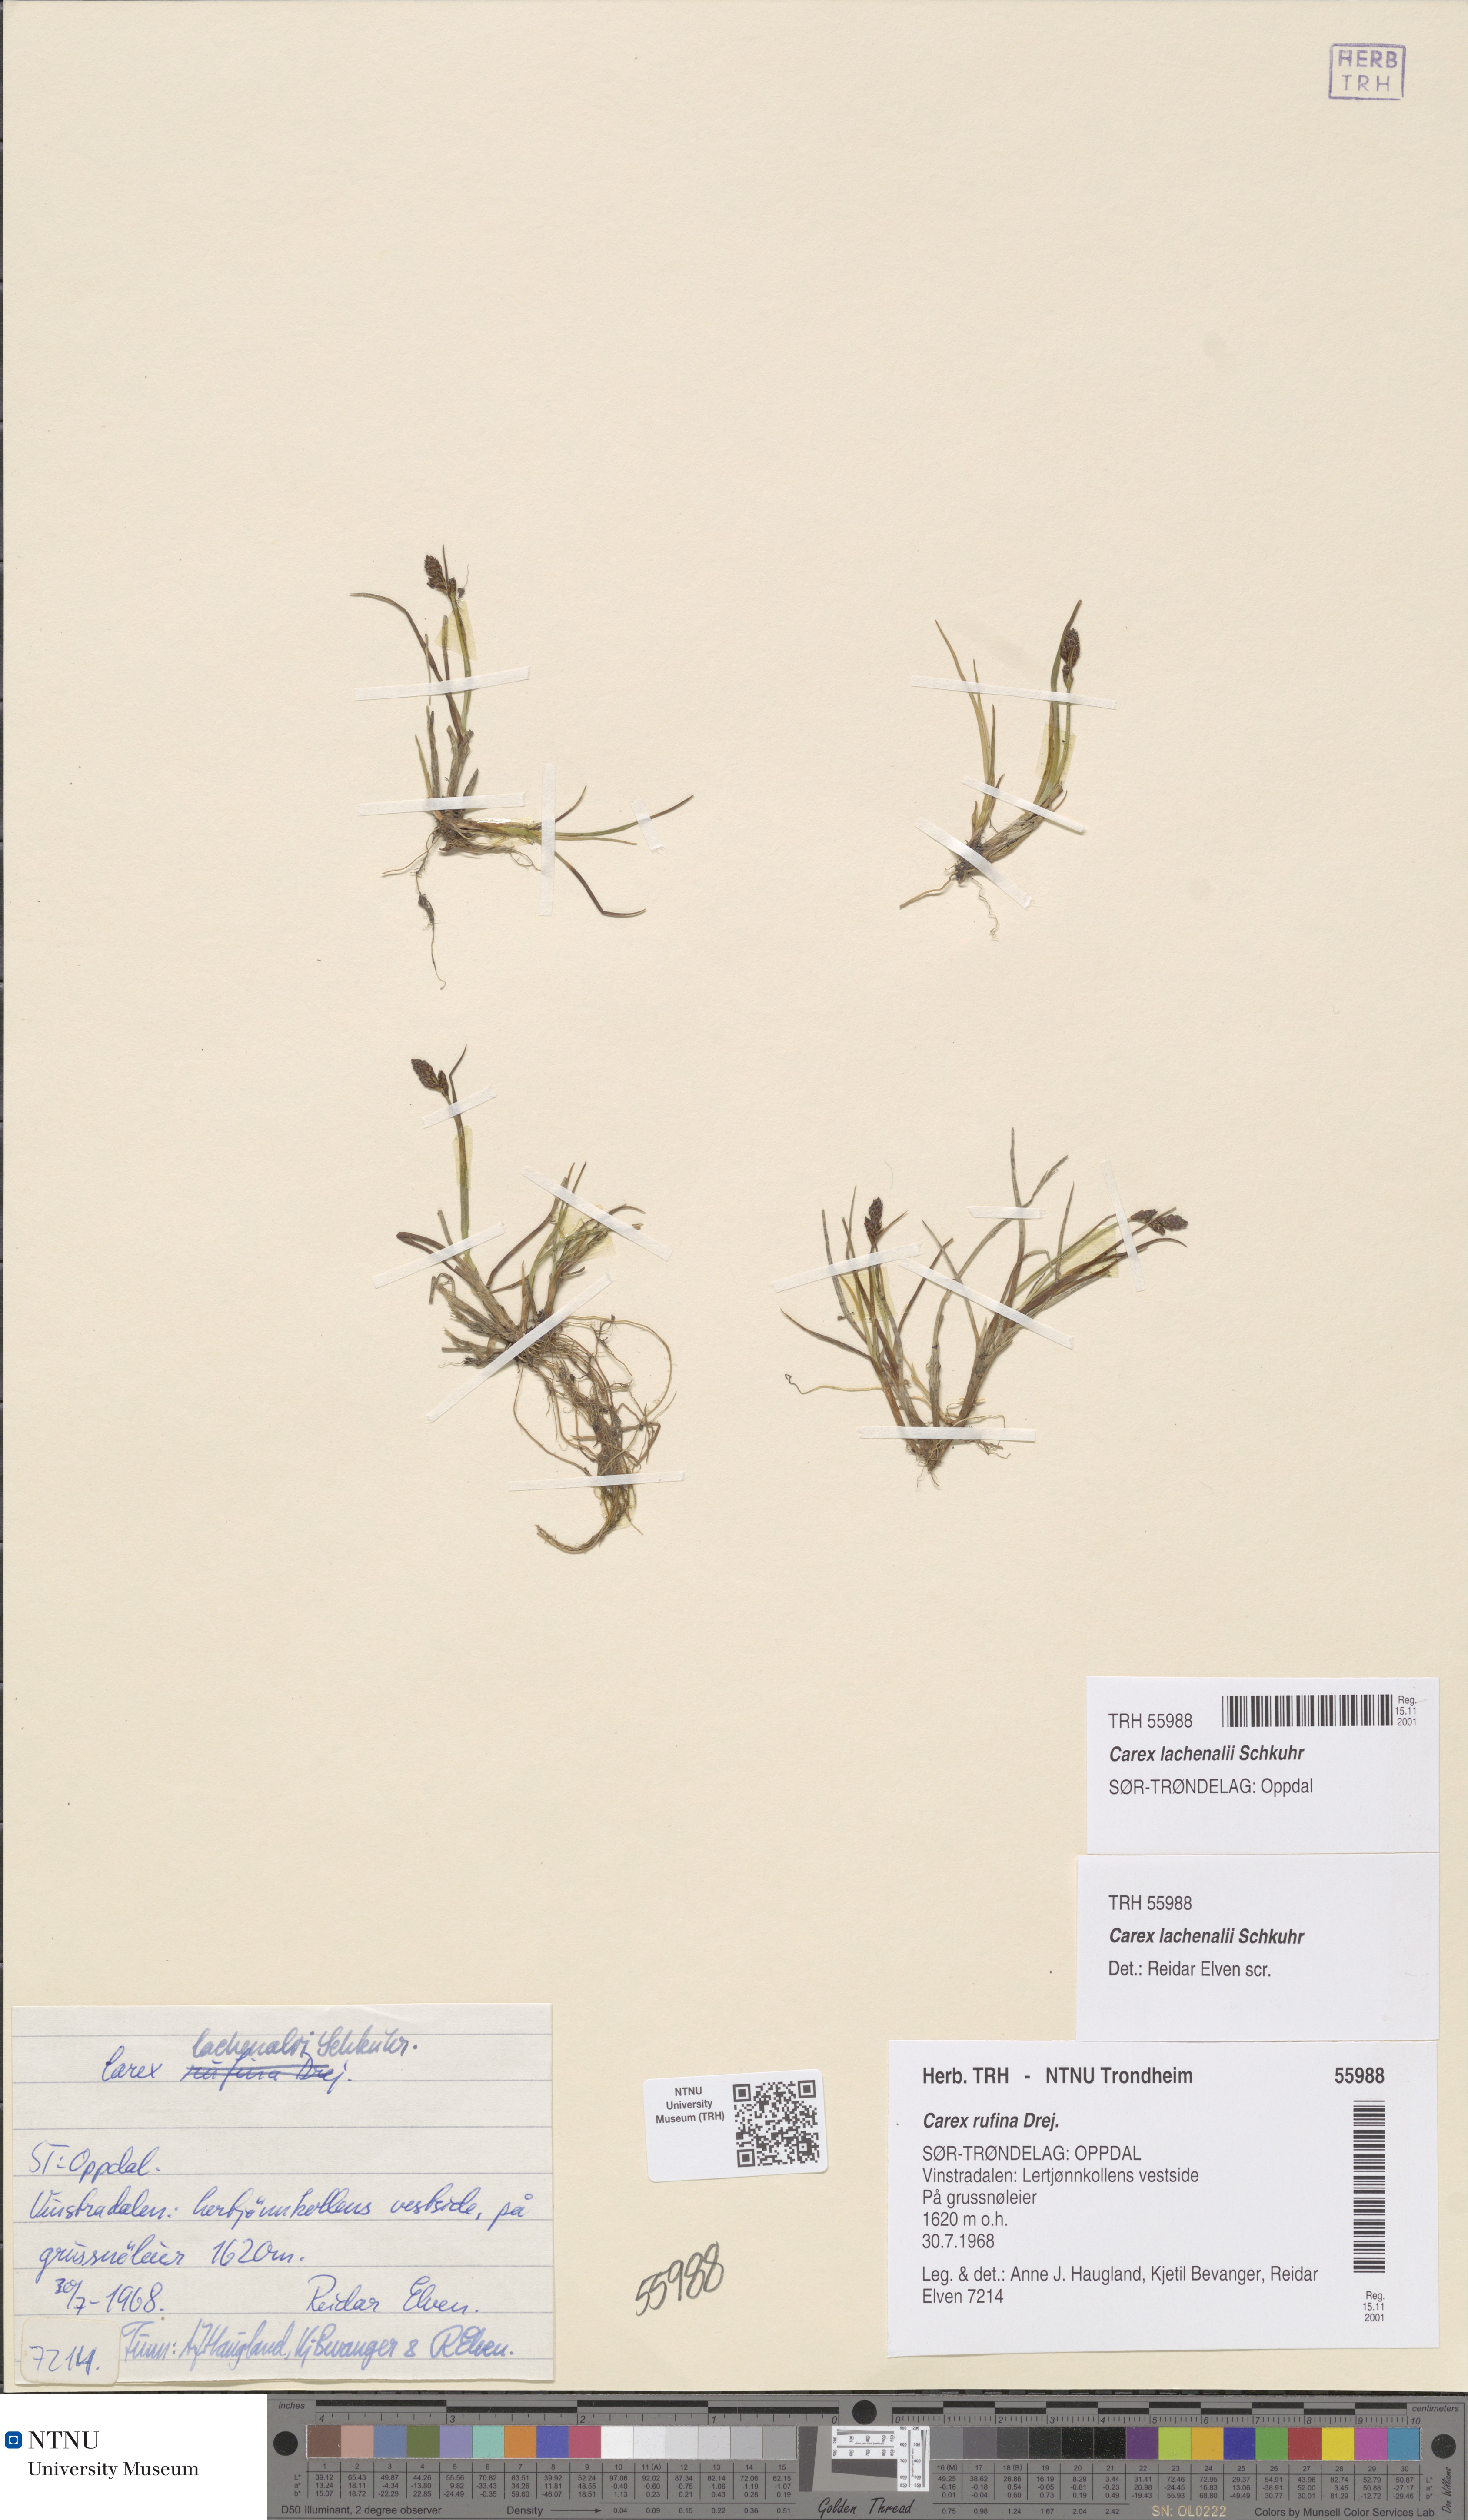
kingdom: Plantae
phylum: Tracheophyta
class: Liliopsida
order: Poales
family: Cyperaceae
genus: Carex
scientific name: Carex lachenalii
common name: Hare's-foot sedge
